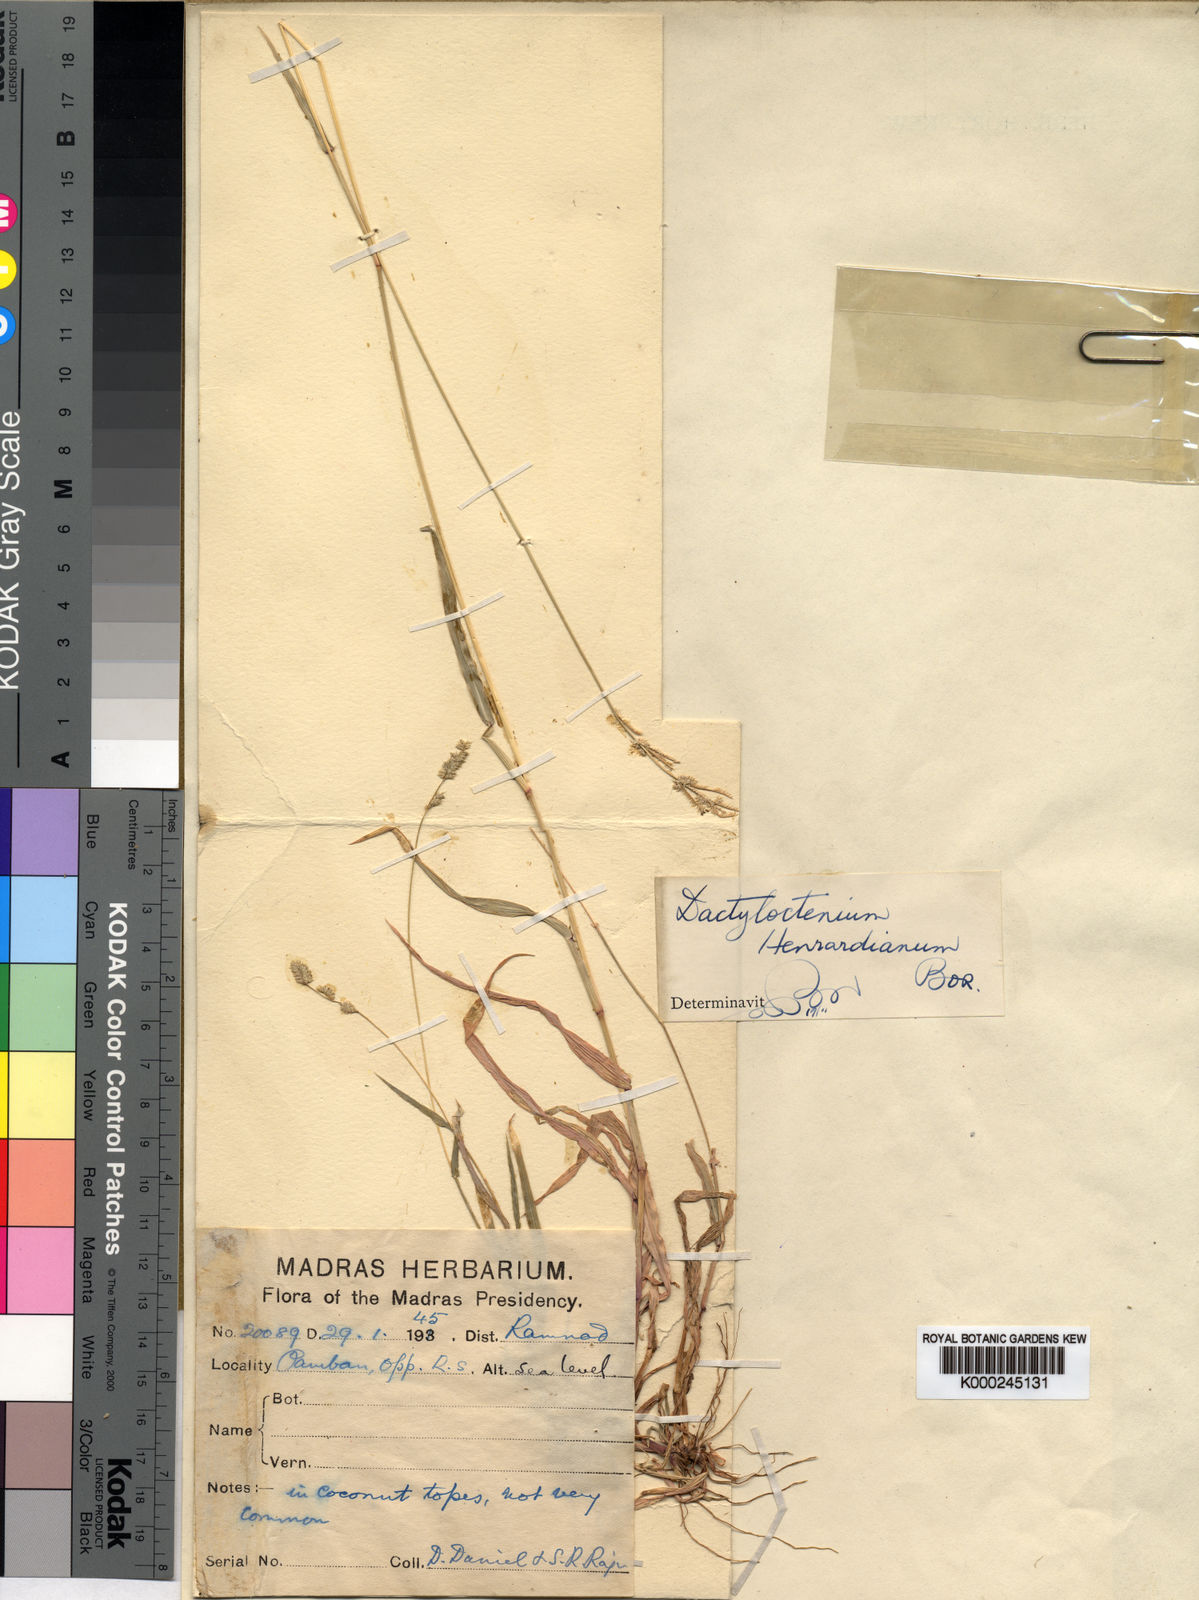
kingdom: Plantae
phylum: Tracheophyta
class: Liliopsida
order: Poales
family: Poaceae
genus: Acrachne
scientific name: Acrachne henrardiana
